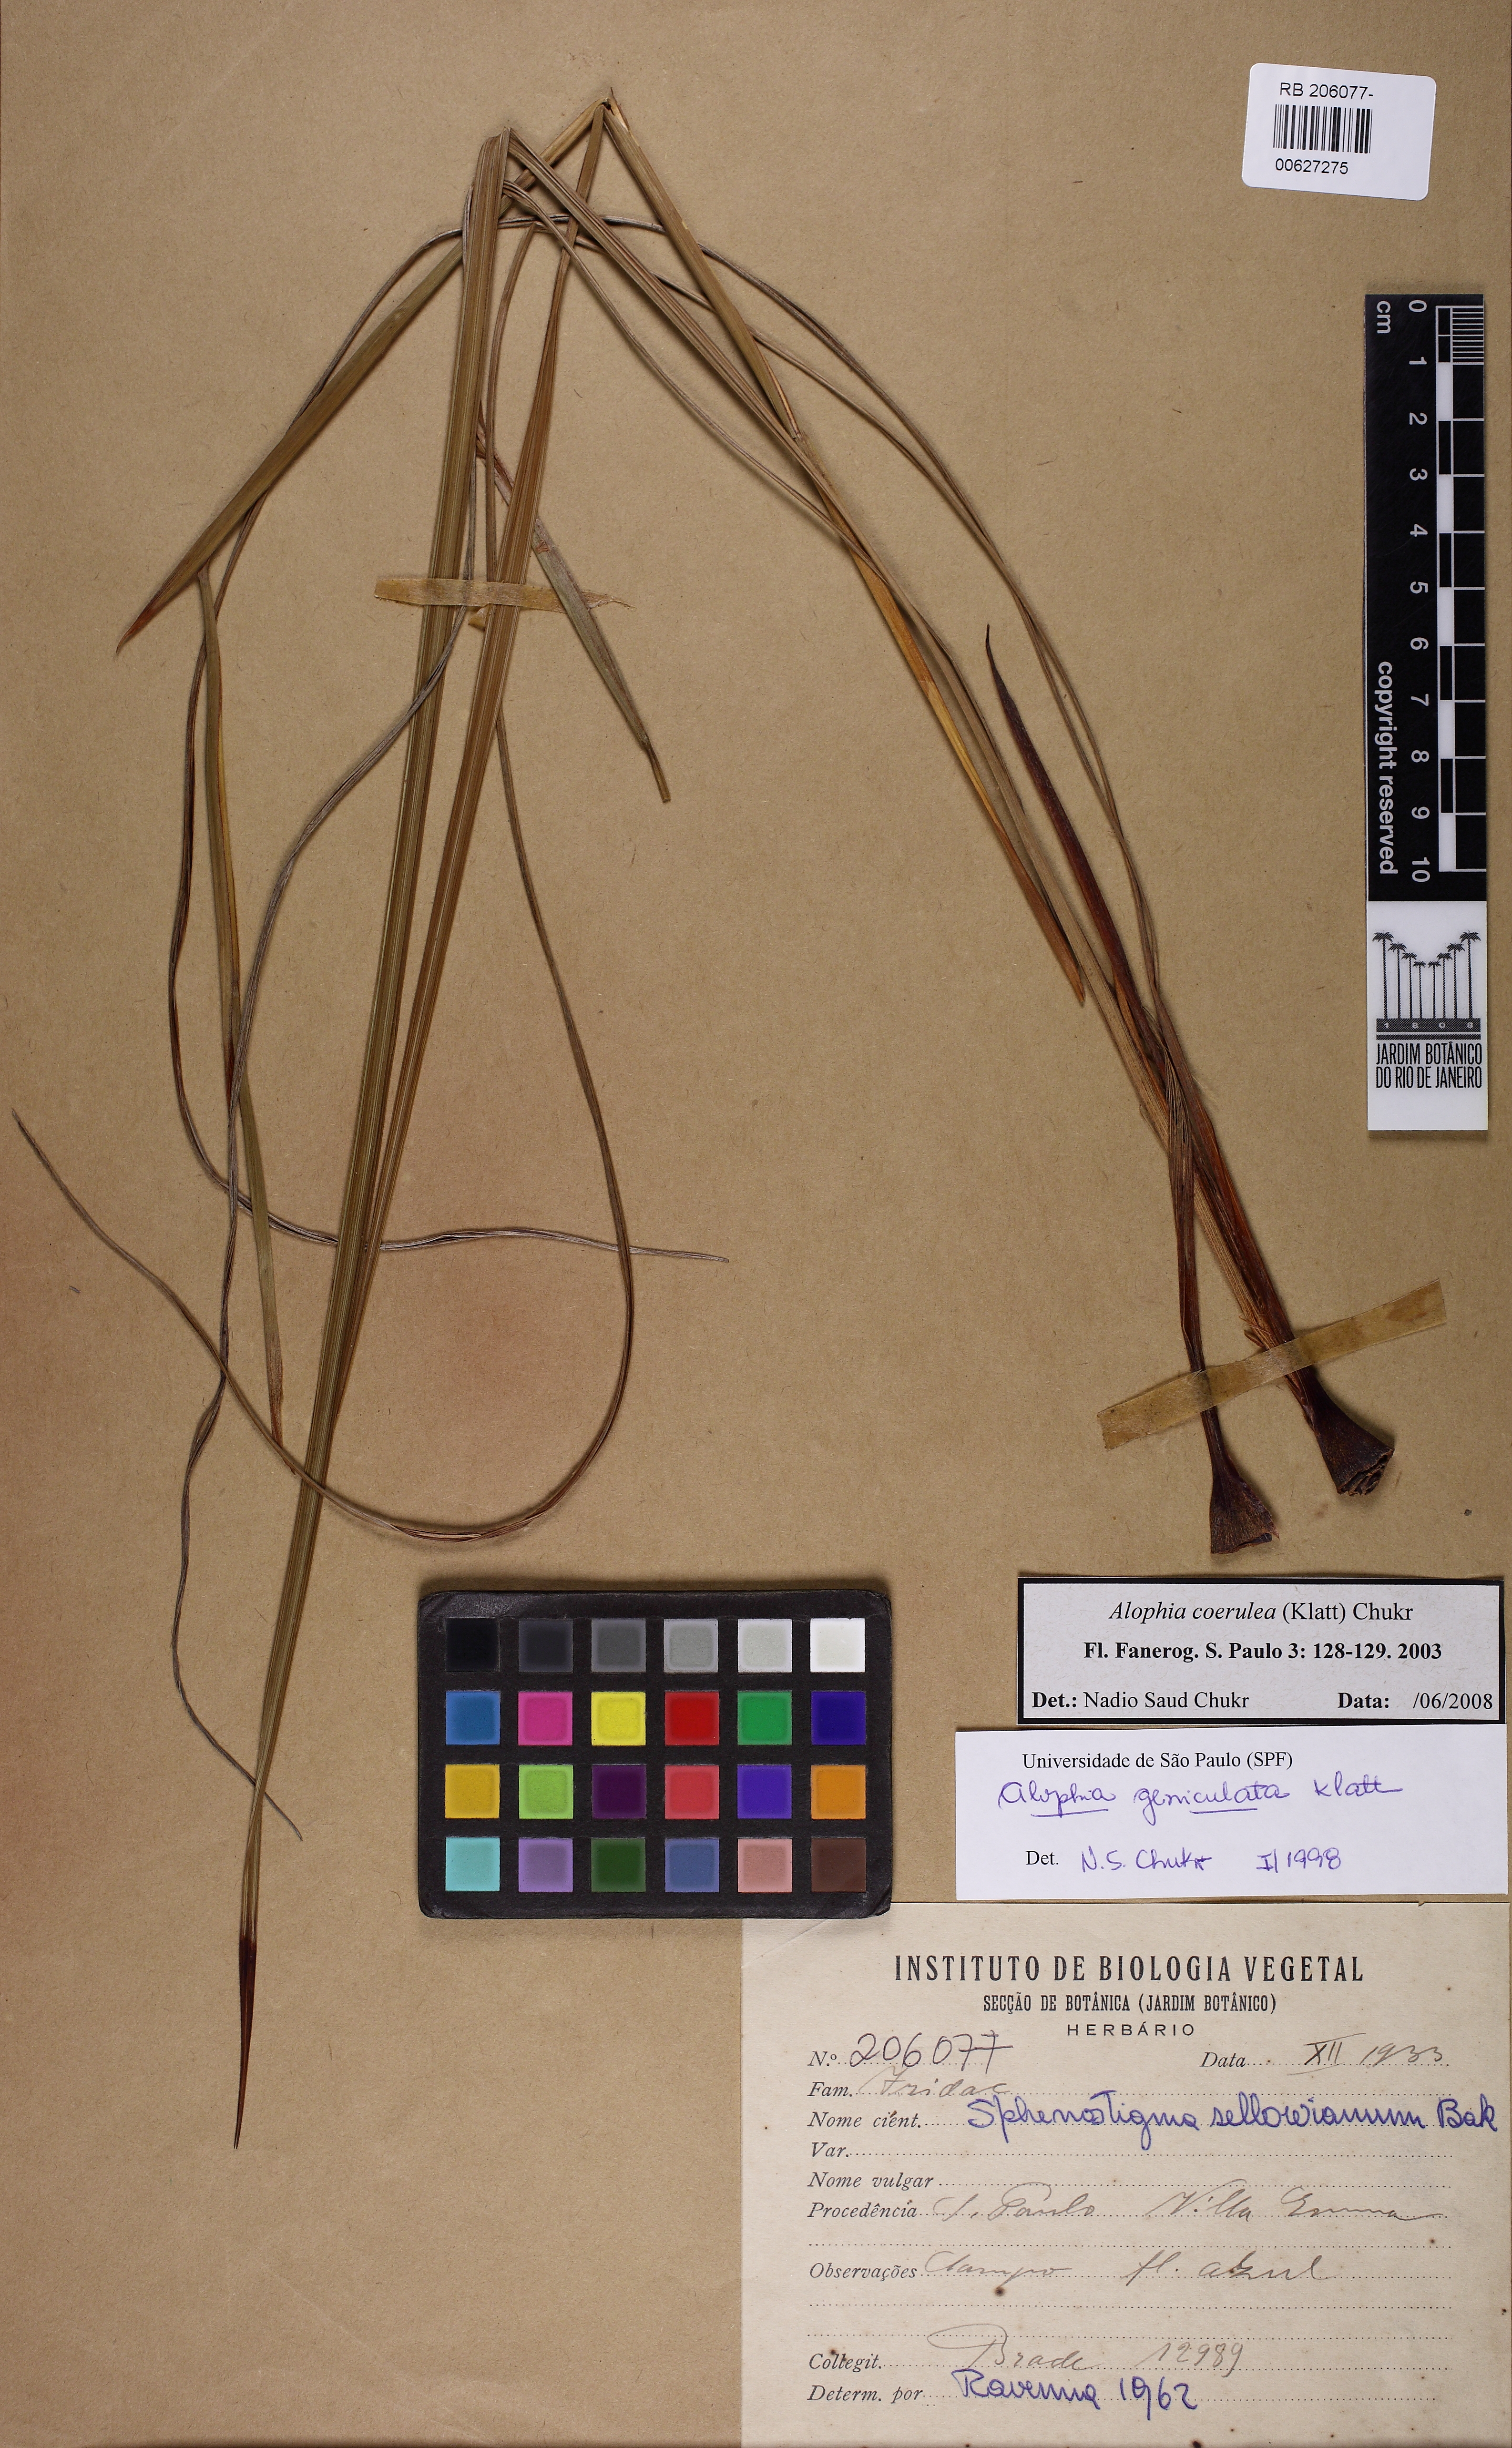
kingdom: Plantae
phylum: Tracheophyta
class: Liliopsida
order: Asparagales
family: Iridaceae
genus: Gelasine
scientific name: Gelasine coerulea
